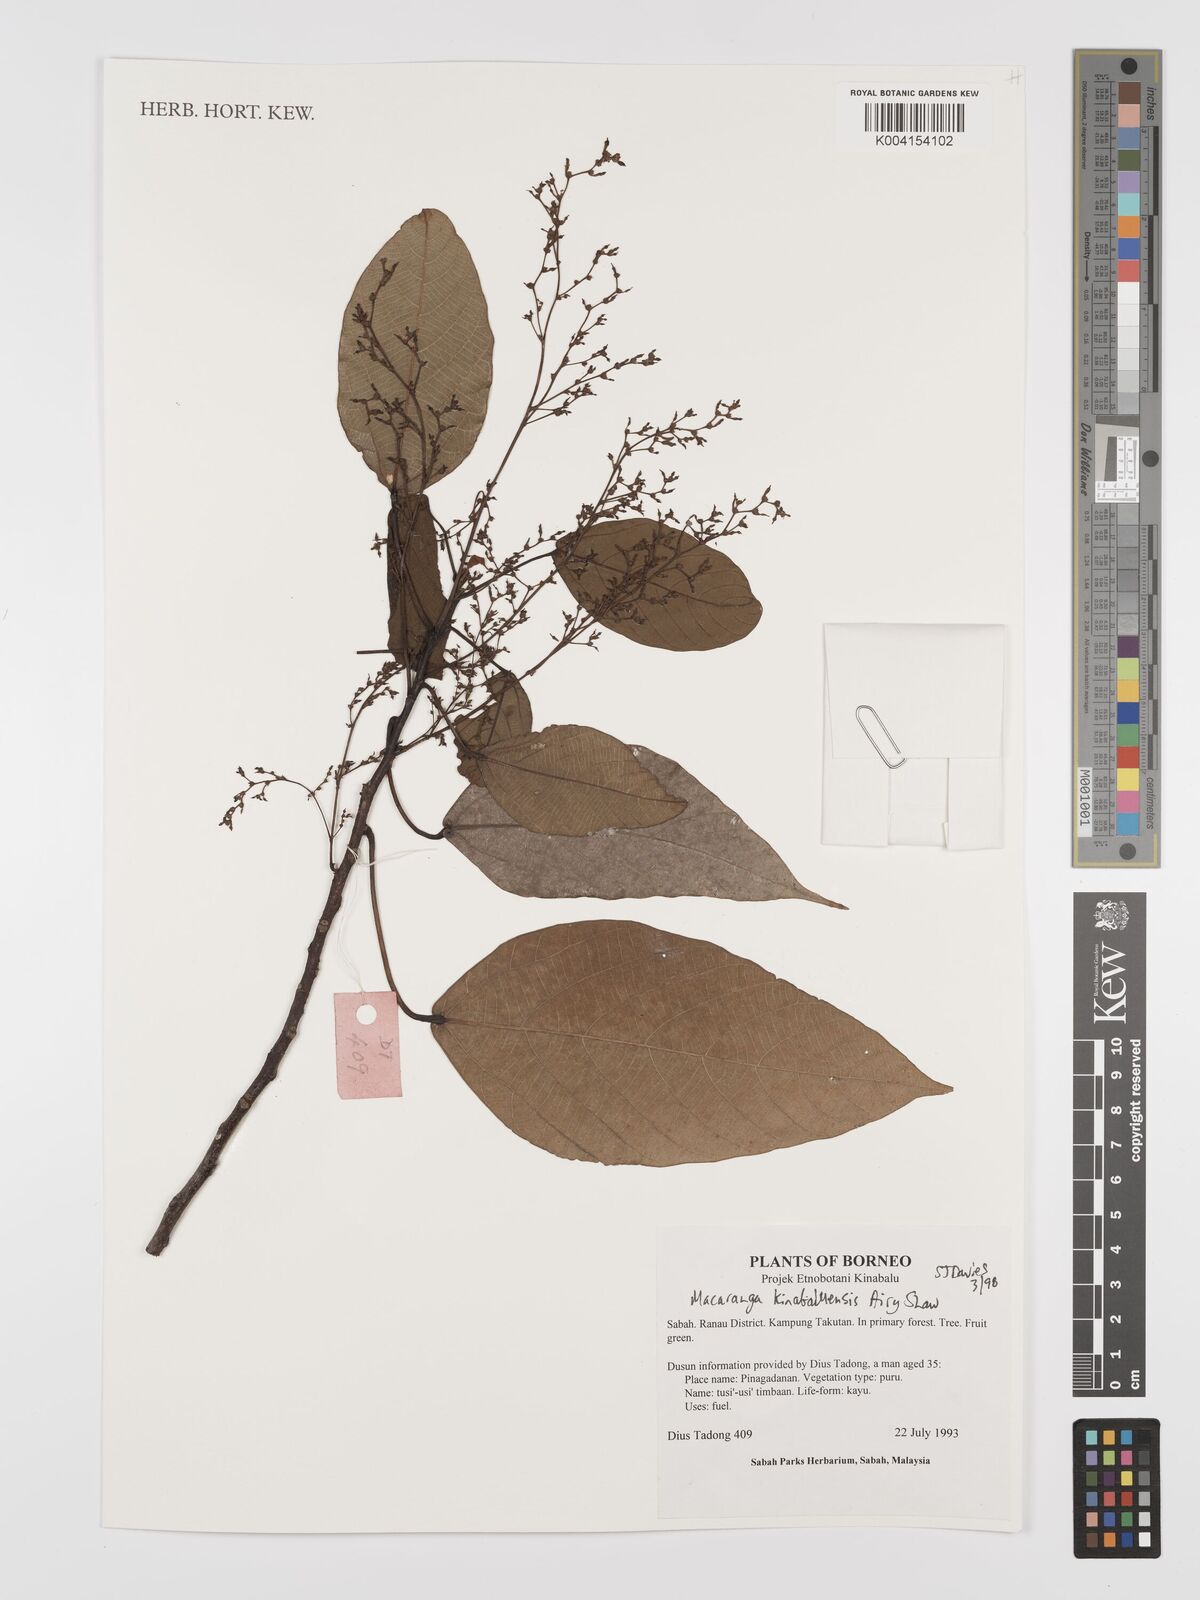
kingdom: Plantae
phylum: Tracheophyta
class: Magnoliopsida
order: Malpighiales
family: Euphorbiaceae
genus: Macaranga
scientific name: Macaranga kinabaluensis
